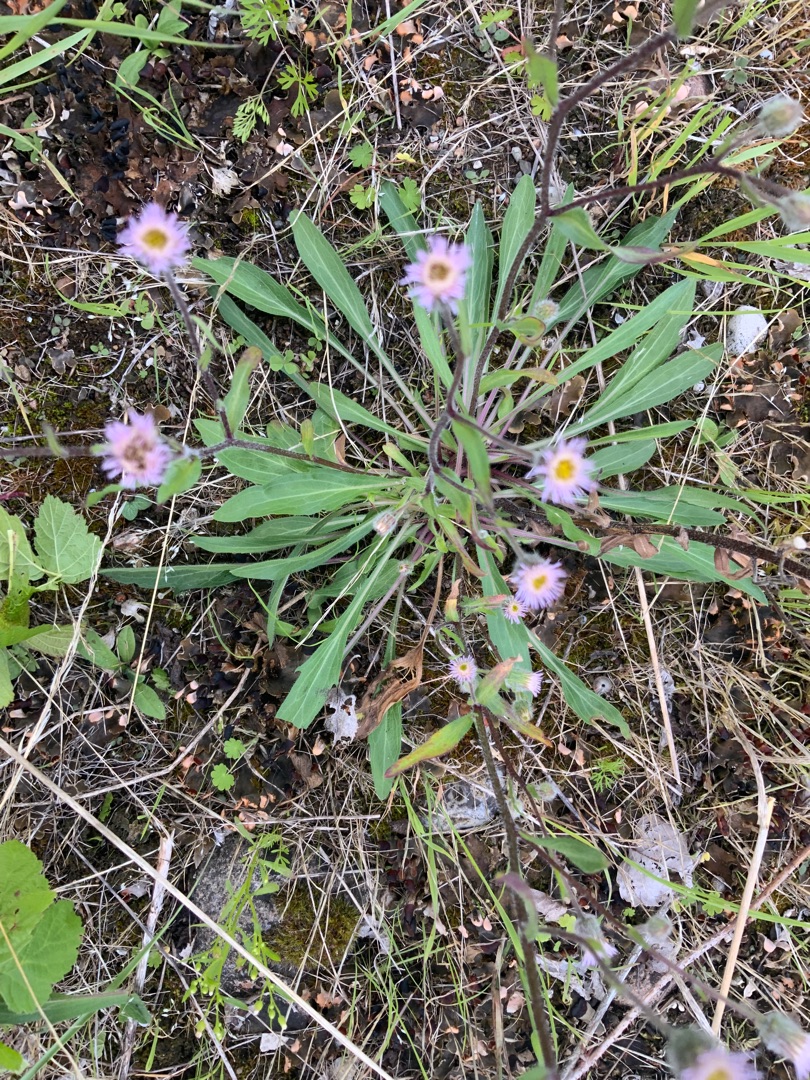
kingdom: Plantae
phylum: Tracheophyta
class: Magnoliopsida
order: Asterales
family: Asteraceae
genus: Erigeron
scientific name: Erigeron muralis
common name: Vreden bakkestjerne
